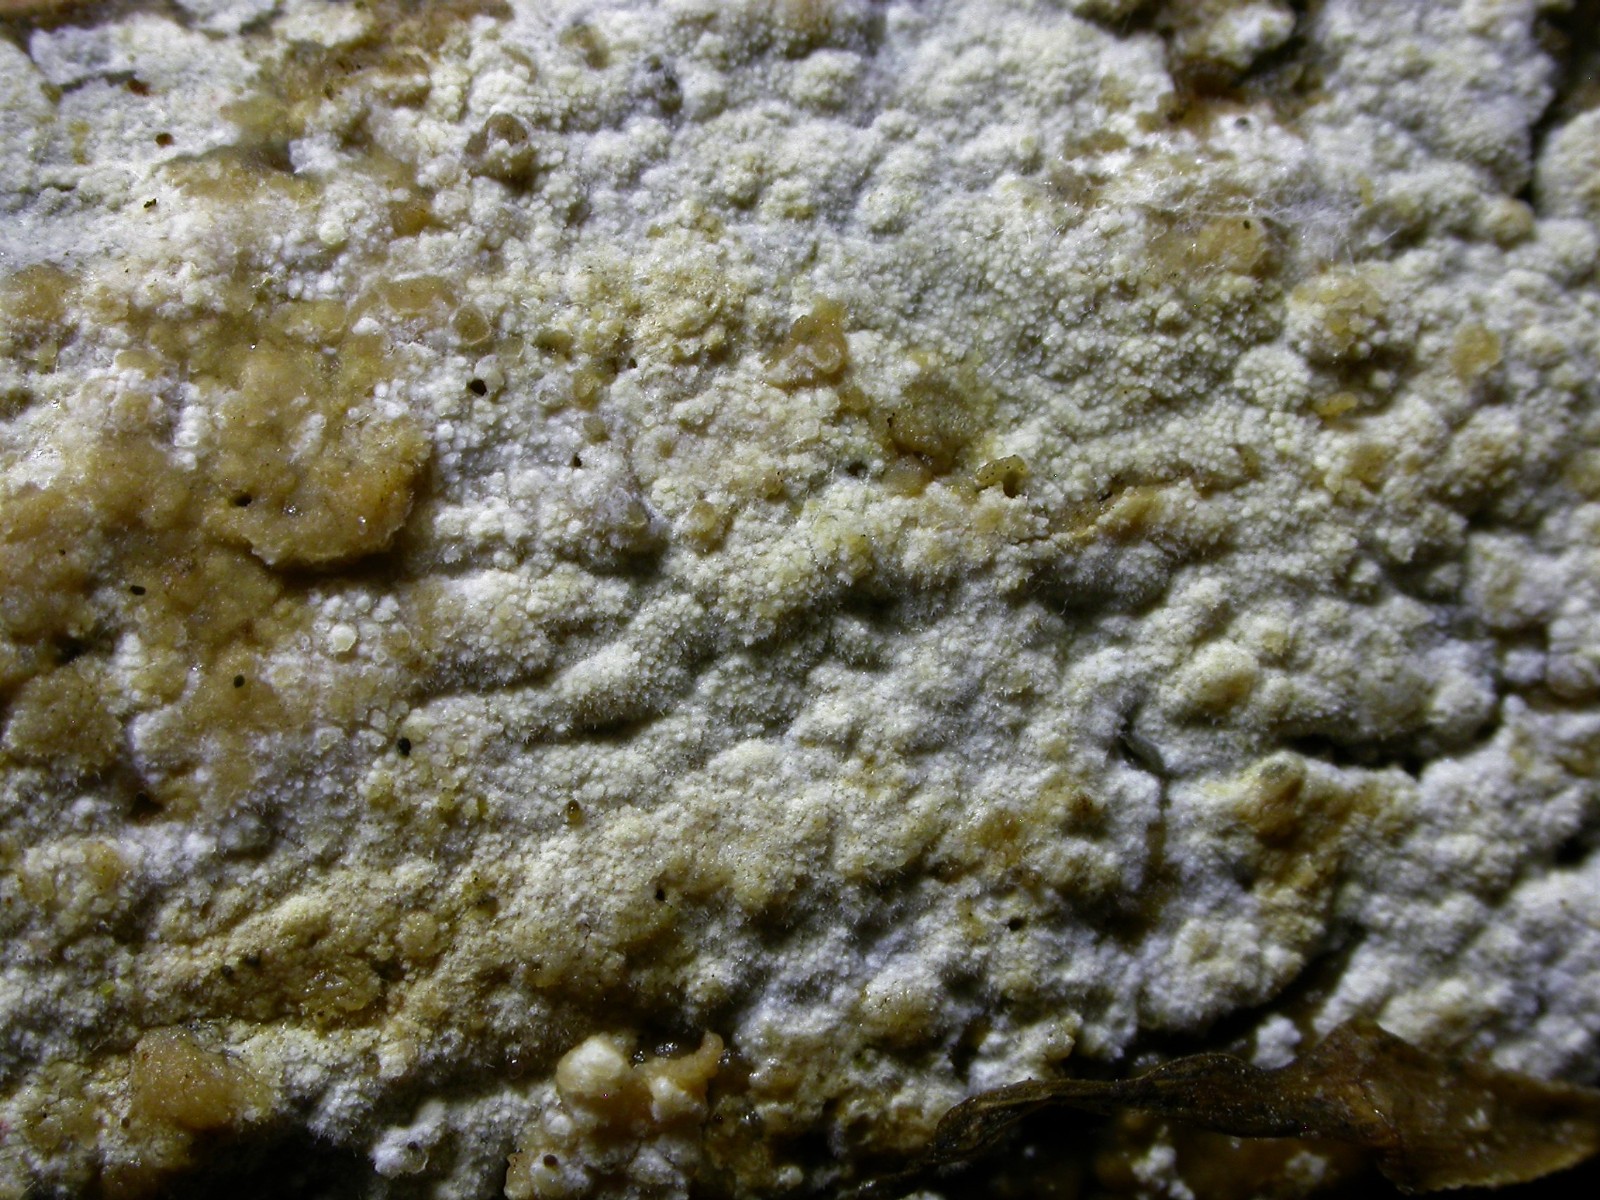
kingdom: Fungi
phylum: Basidiomycota
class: Agaricomycetes
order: Polyporales
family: Hyphodermataceae
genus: Hyphoderma
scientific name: Hyphoderma setigerum
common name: håret kalkskind
